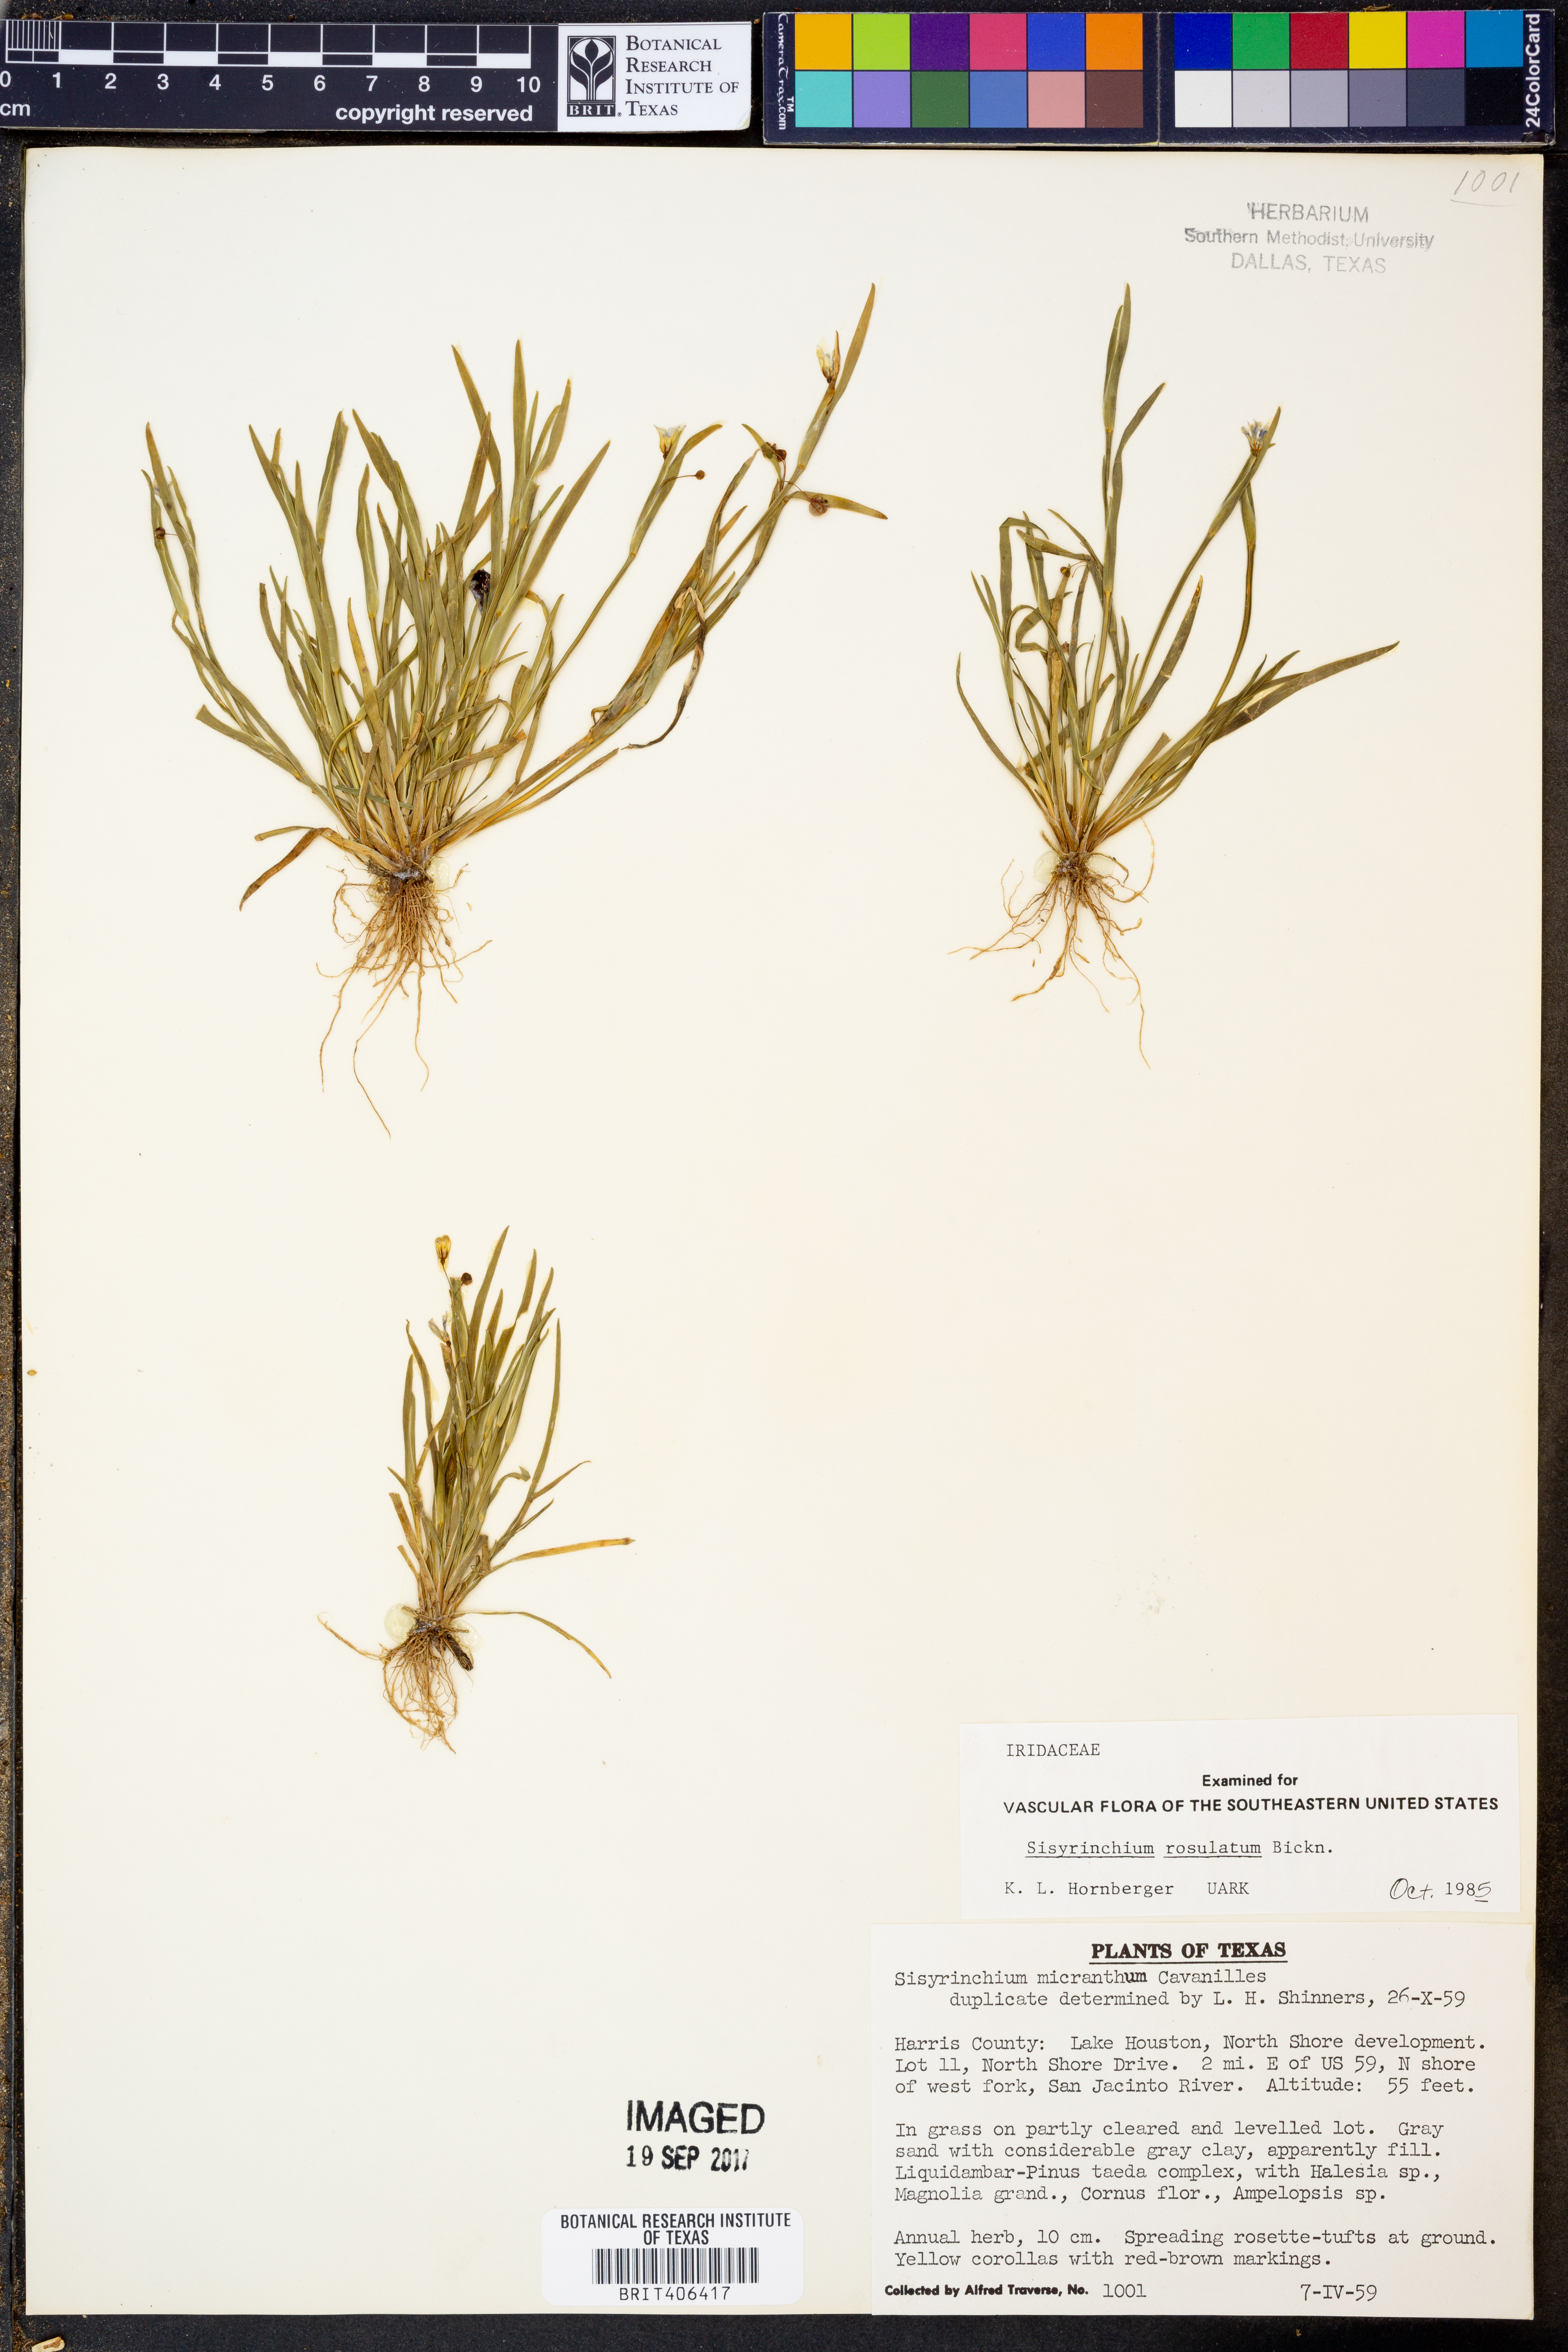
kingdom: Plantae
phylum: Tracheophyta
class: Liliopsida
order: Asparagales
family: Iridaceae
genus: Sisyrinchium
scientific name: Sisyrinchium rosulatum
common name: Annual blue-eyed grass
